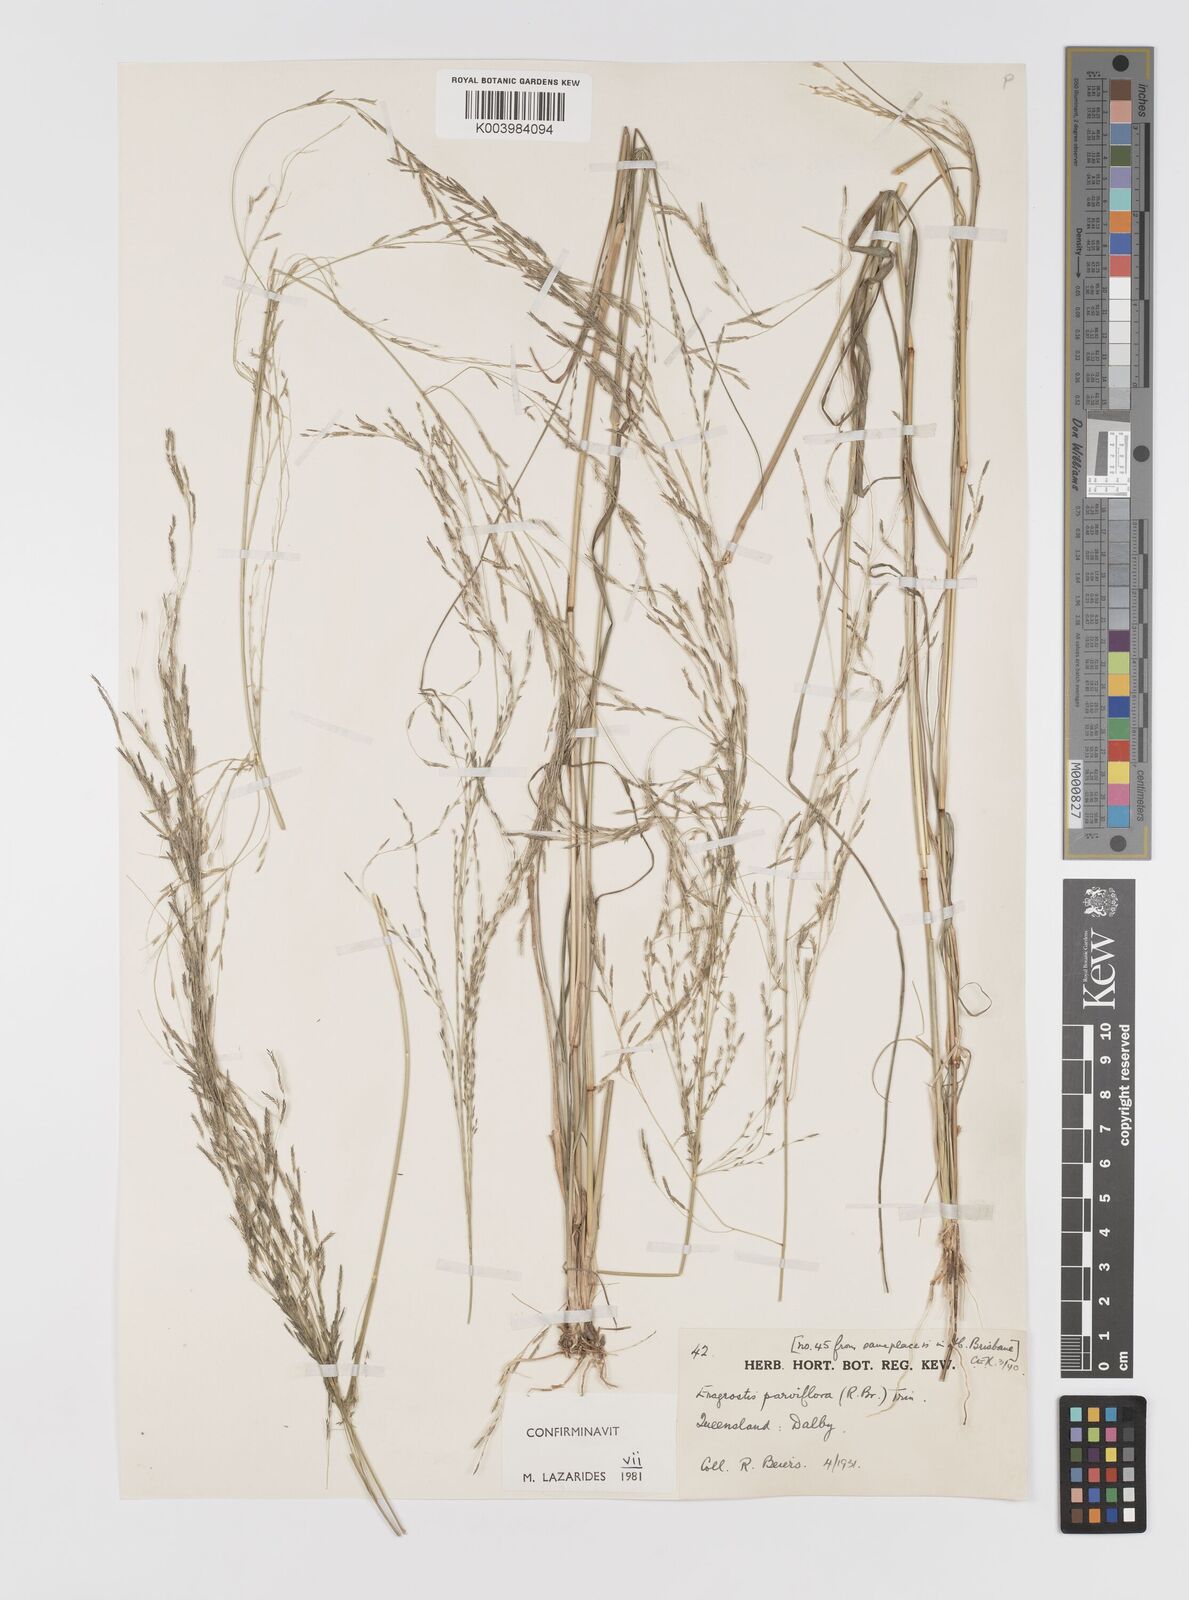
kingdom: Plantae
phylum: Tracheophyta
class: Liliopsida
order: Poales
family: Poaceae
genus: Eragrostis
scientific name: Eragrostis parviflora
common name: Weeping love-grass
